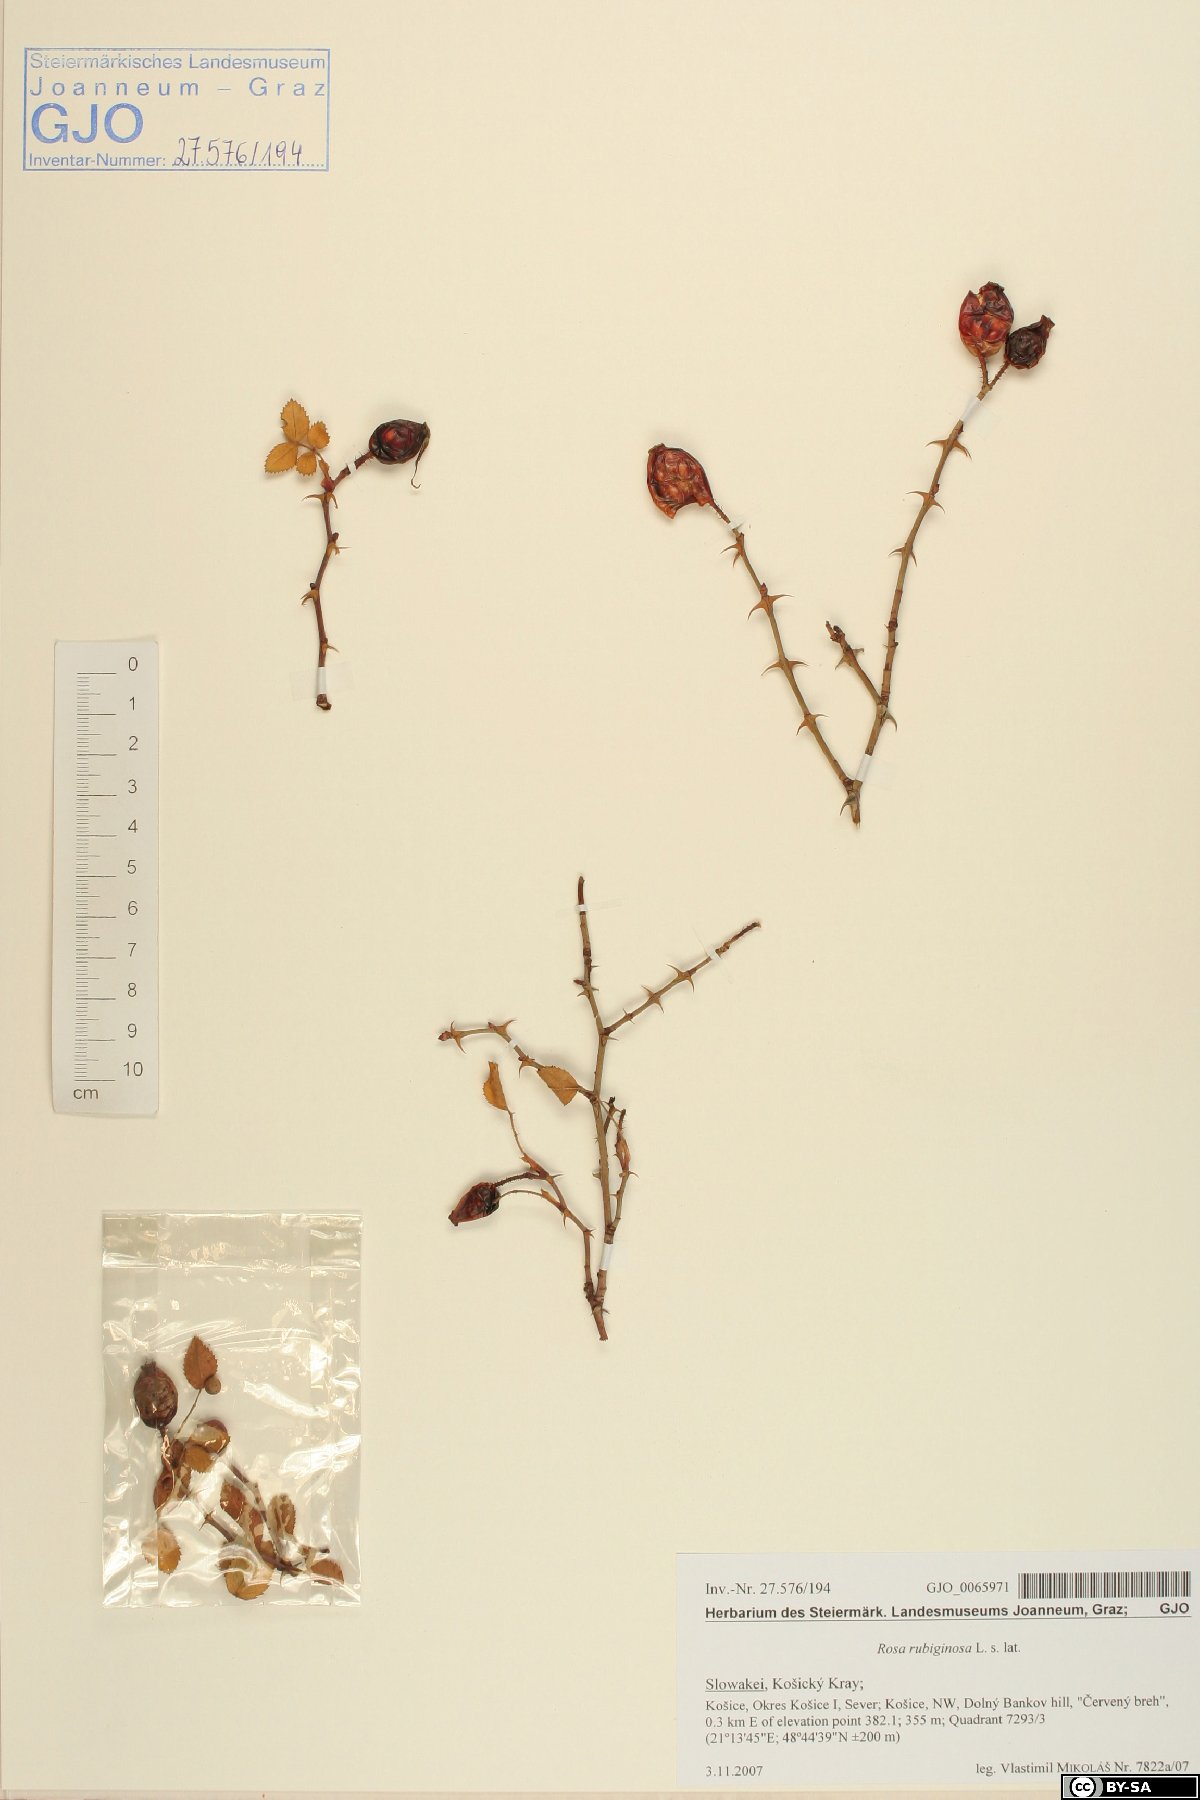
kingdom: Plantae
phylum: Tracheophyta
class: Magnoliopsida
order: Rosales
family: Rosaceae
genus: Rosa
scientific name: Rosa rubiginosa
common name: Sweet-briar
